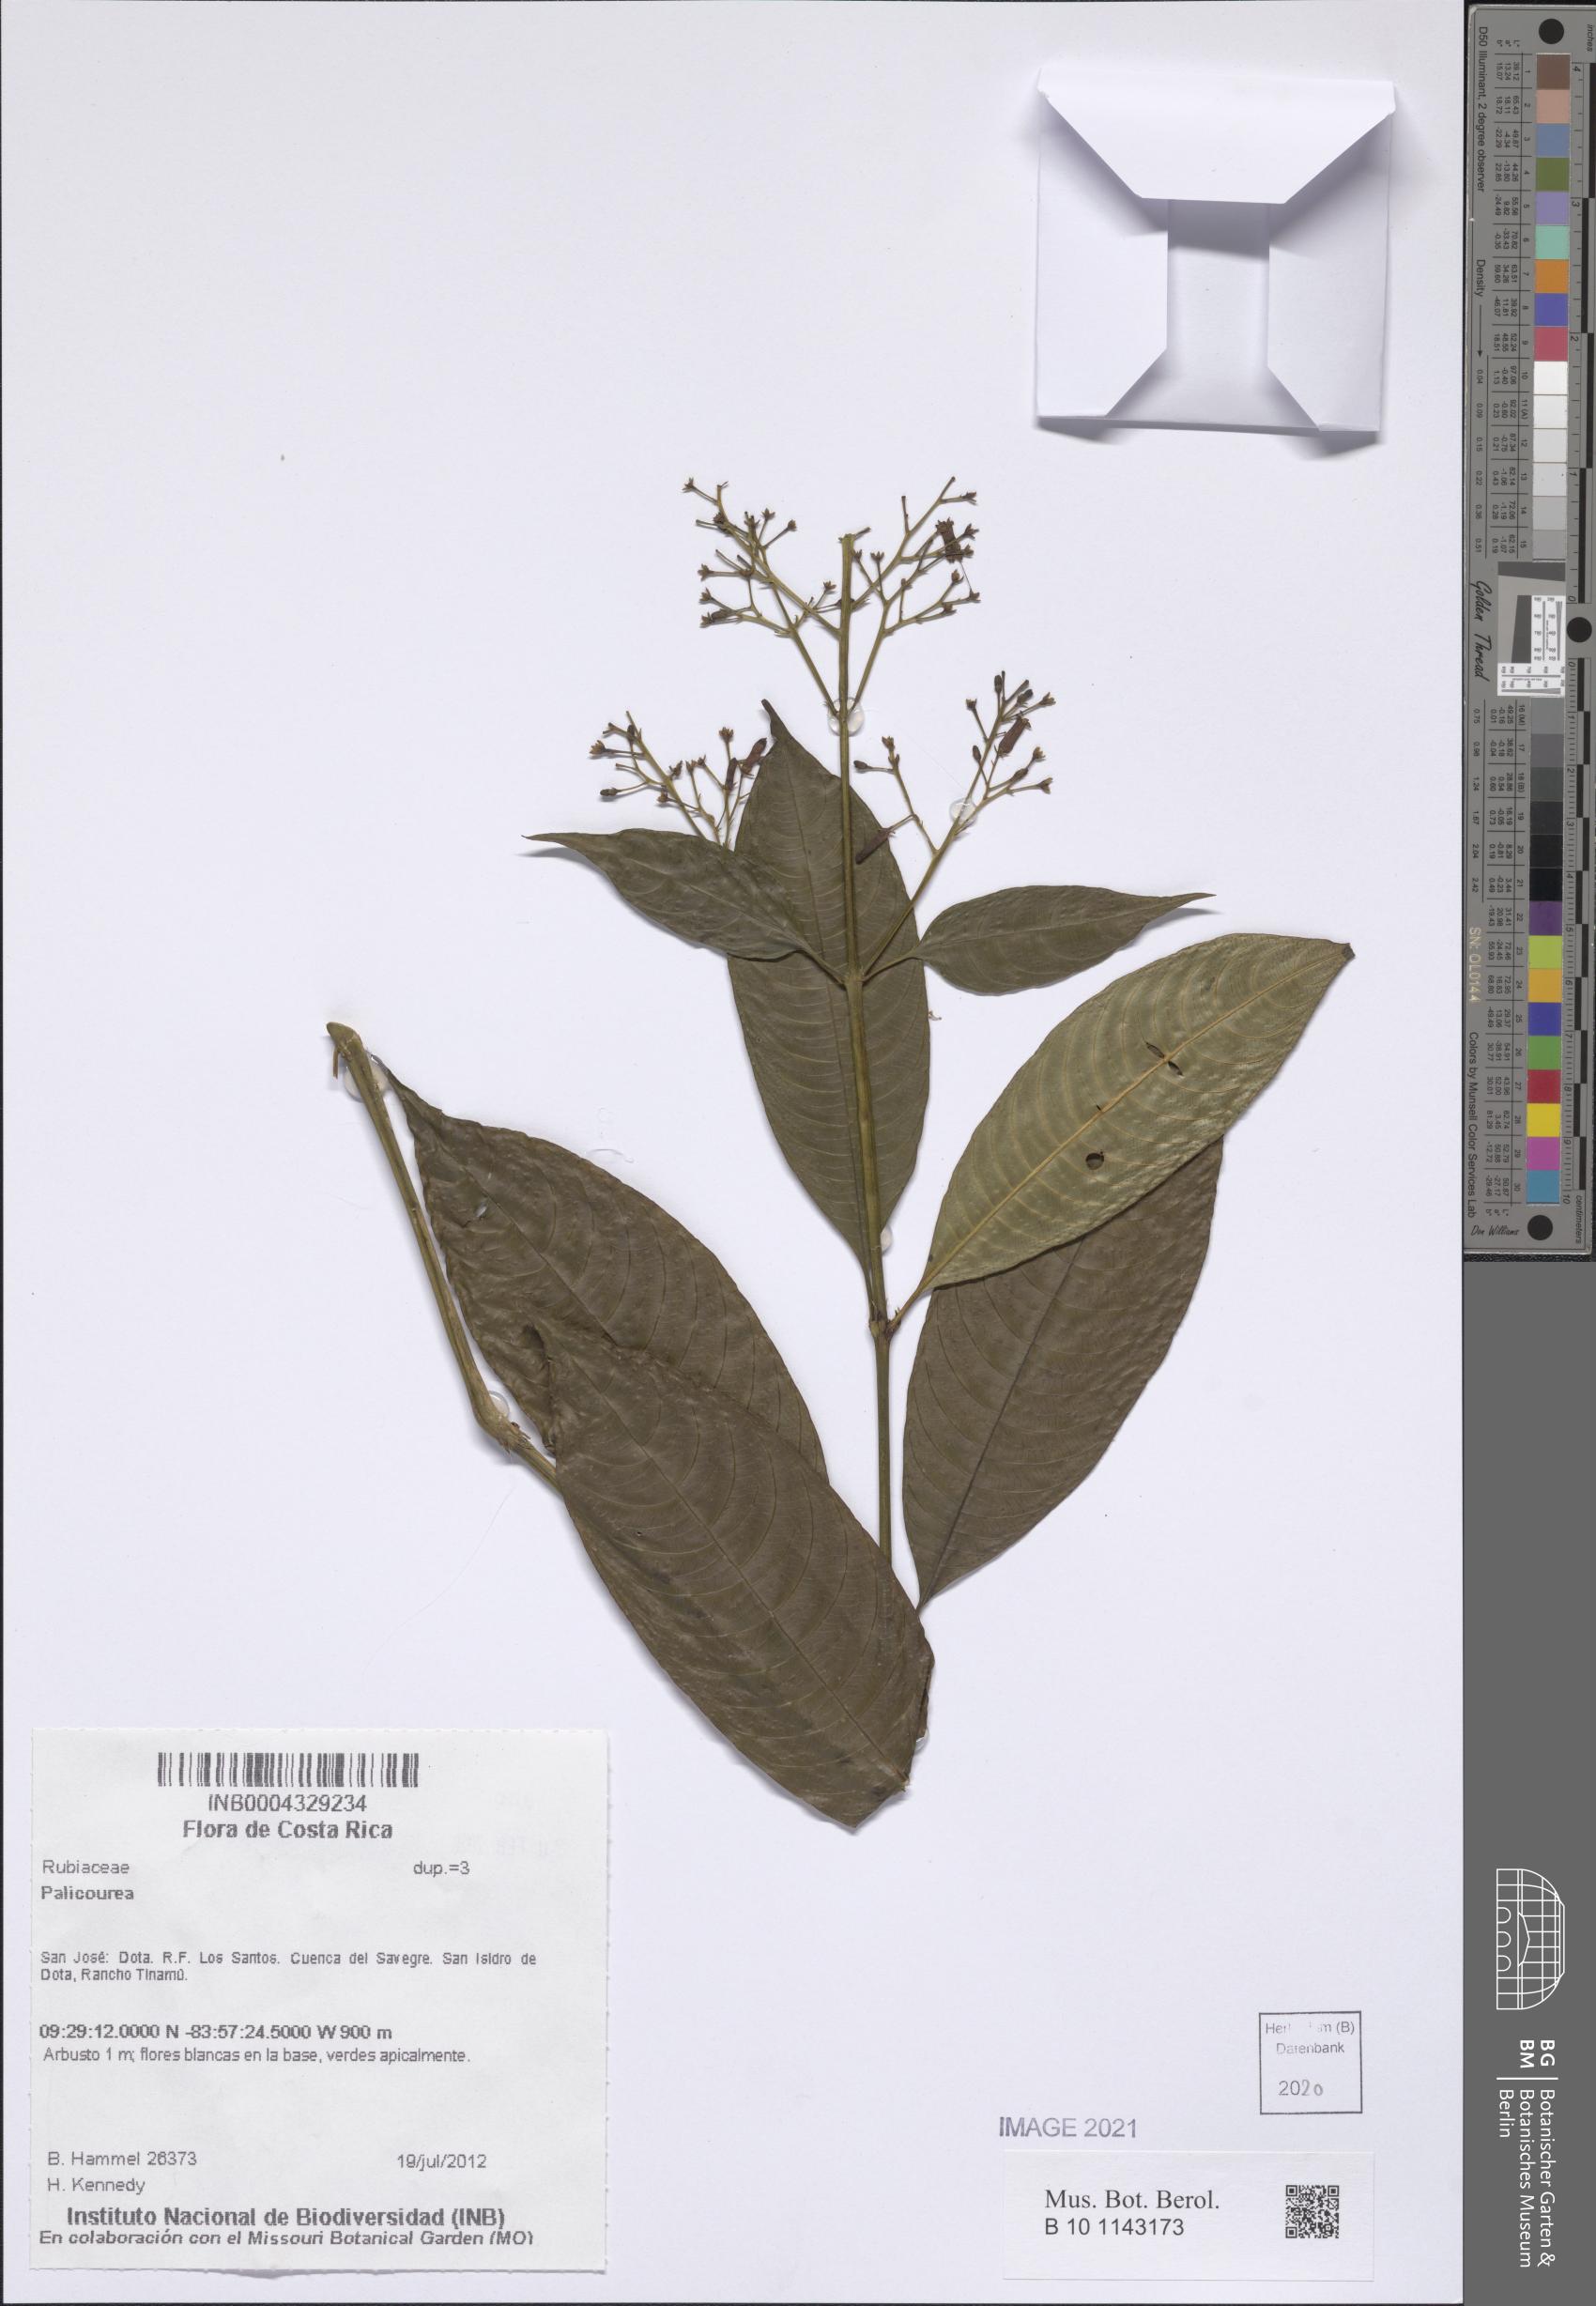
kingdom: Plantae
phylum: Tracheophyta
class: Magnoliopsida
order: Gentianales
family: Rubiaceae
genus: Palicourea
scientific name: Palicourea
